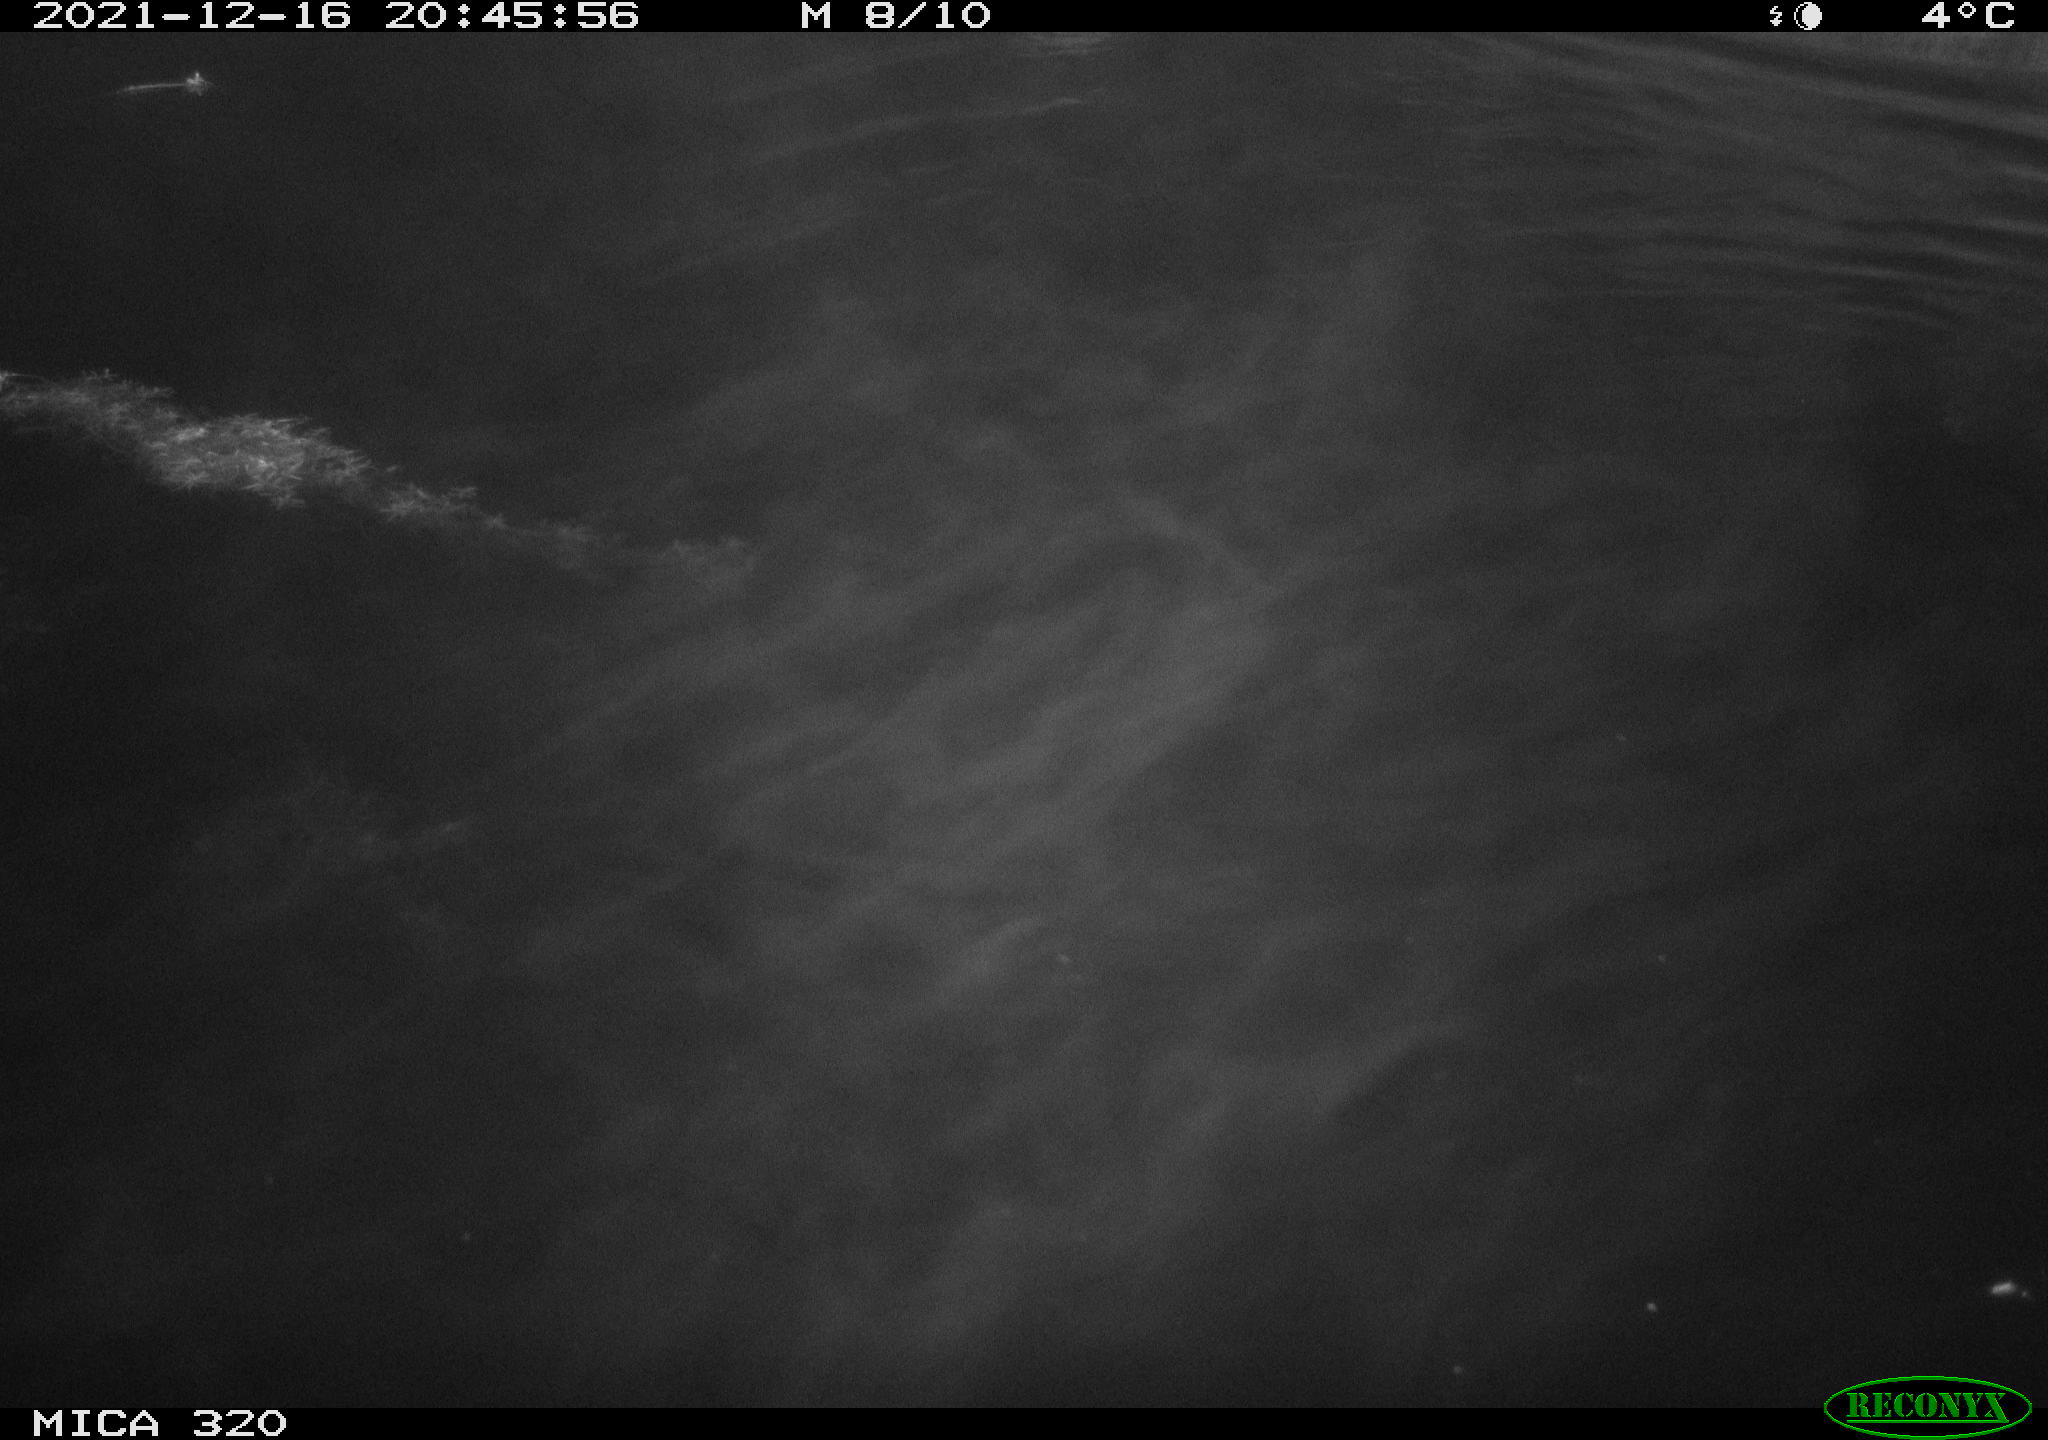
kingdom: Animalia
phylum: Chordata
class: Aves
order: Anseriformes
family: Anatidae
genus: Mareca
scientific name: Mareca strepera
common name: Gadwall
